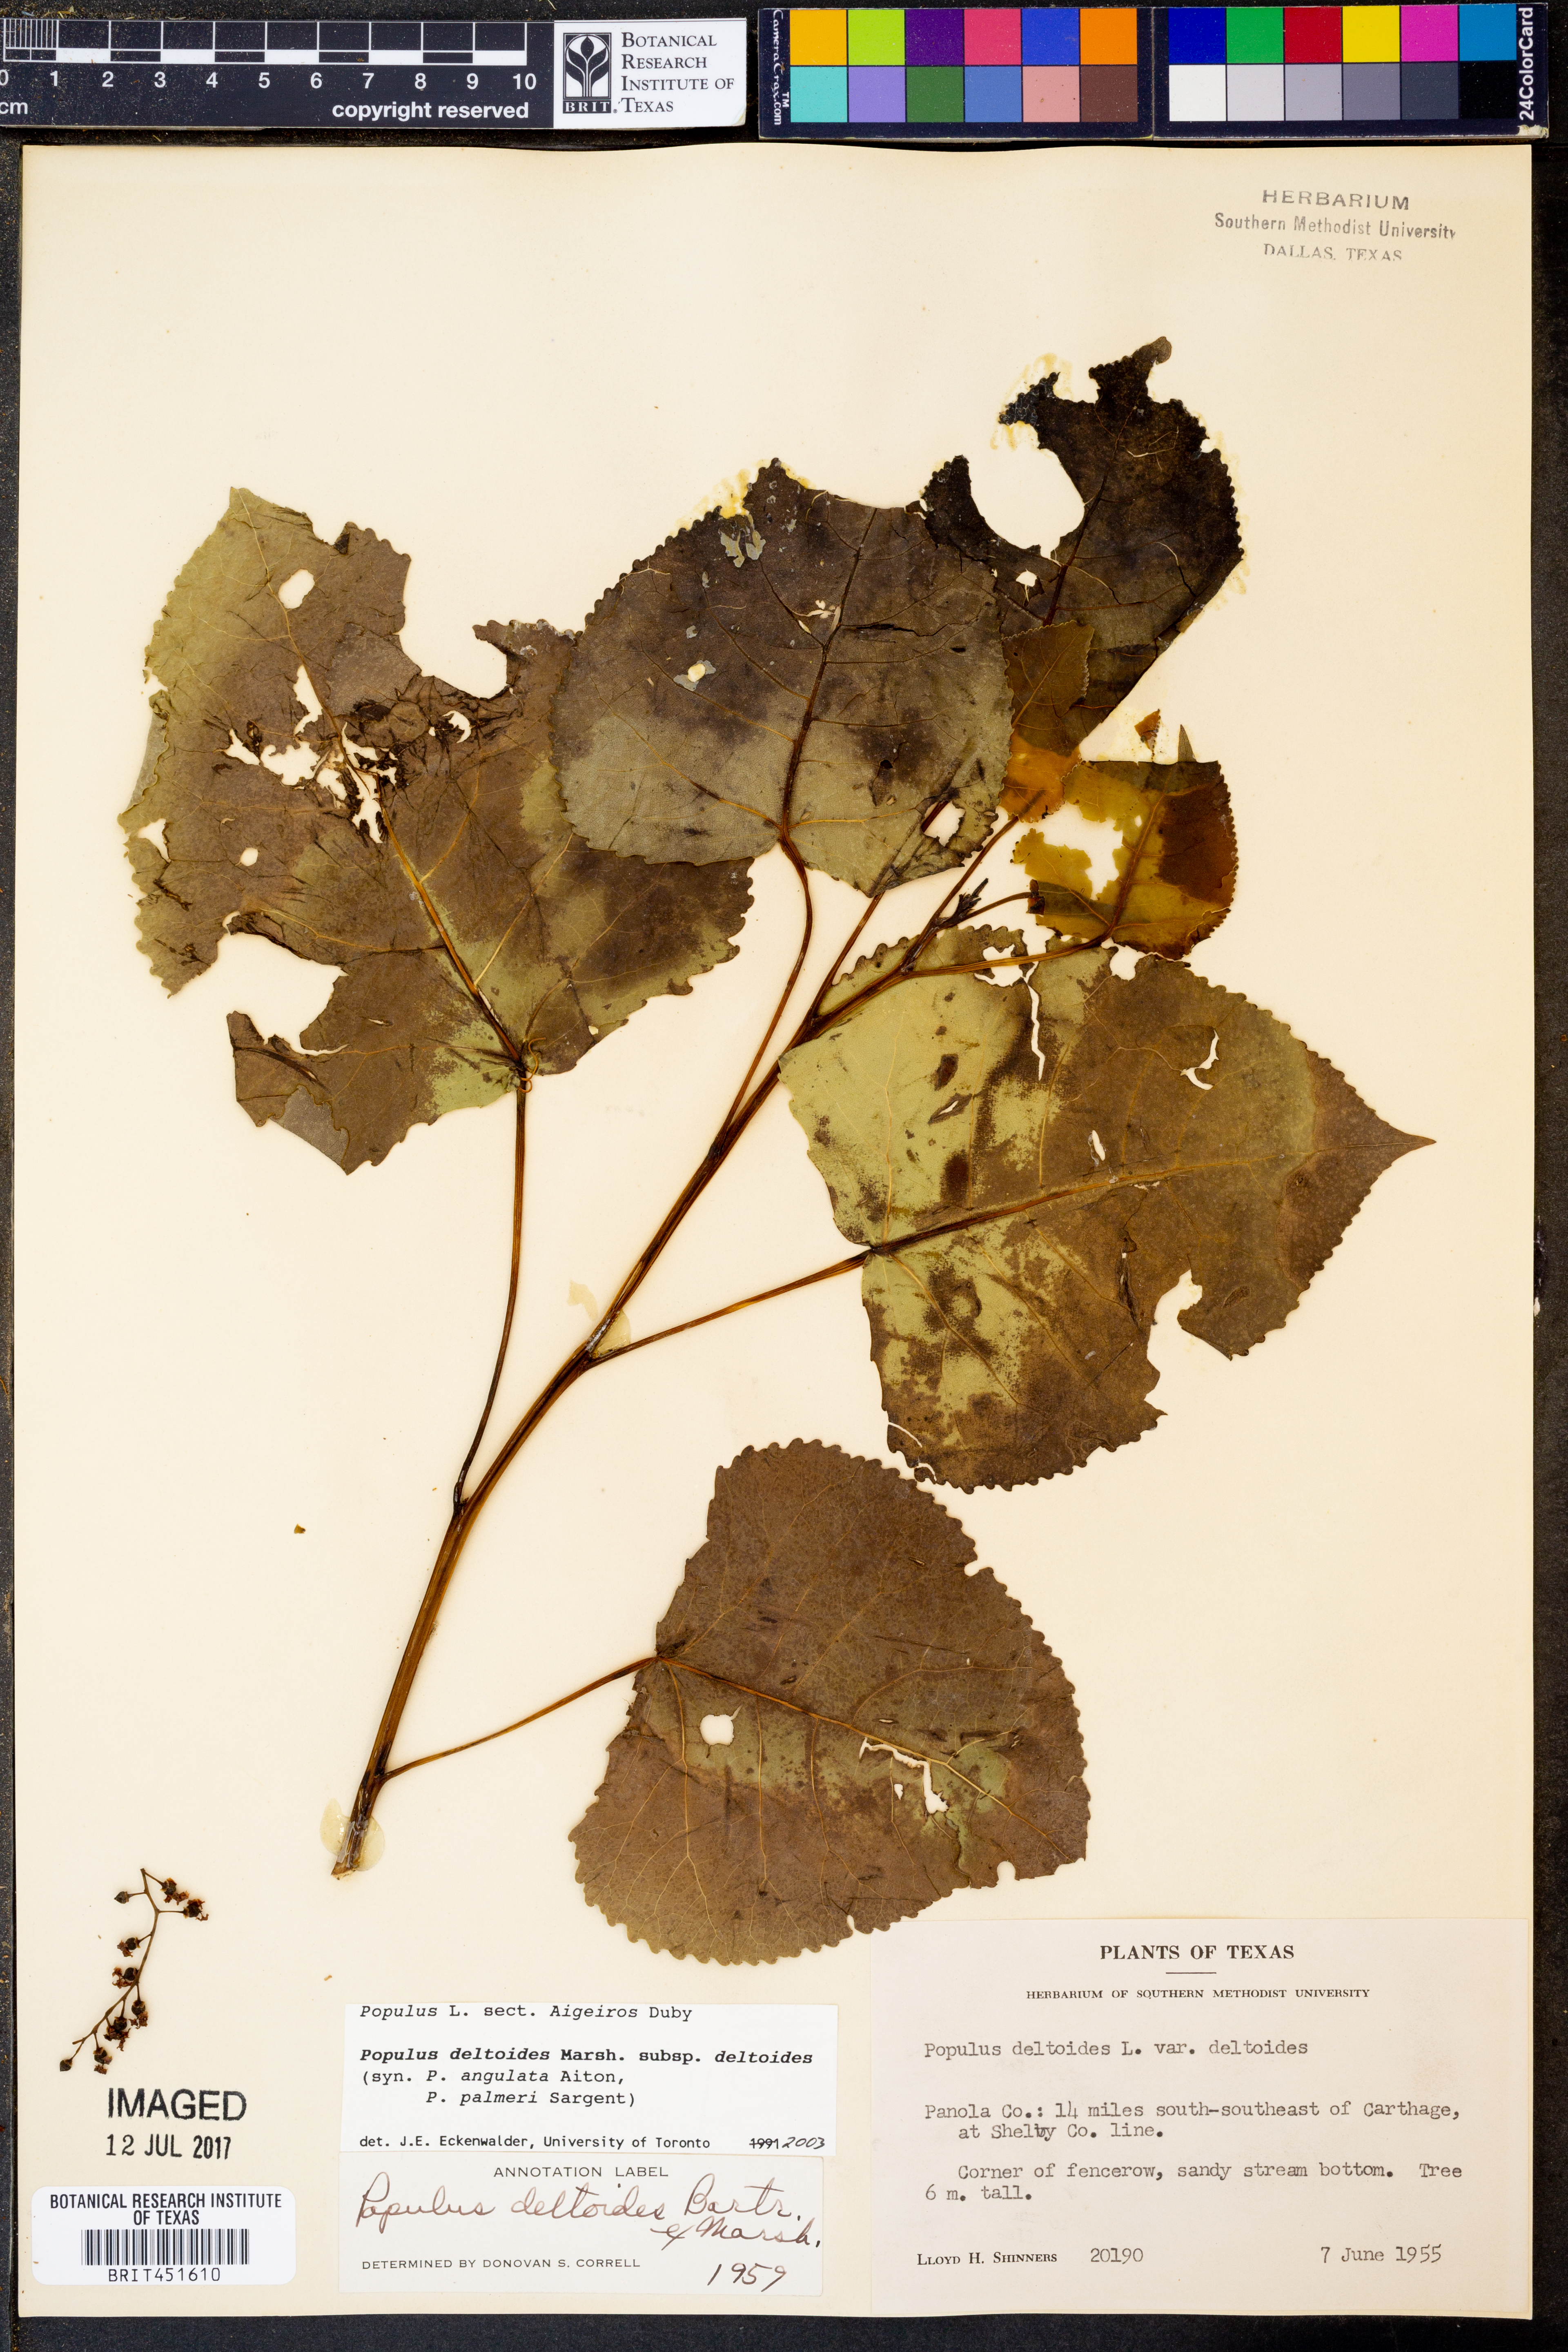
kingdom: Plantae
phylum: Tracheophyta
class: Magnoliopsida
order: Malpighiales
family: Salicaceae
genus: Populus
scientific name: Populus deltoides
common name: Eastern cottonwood
